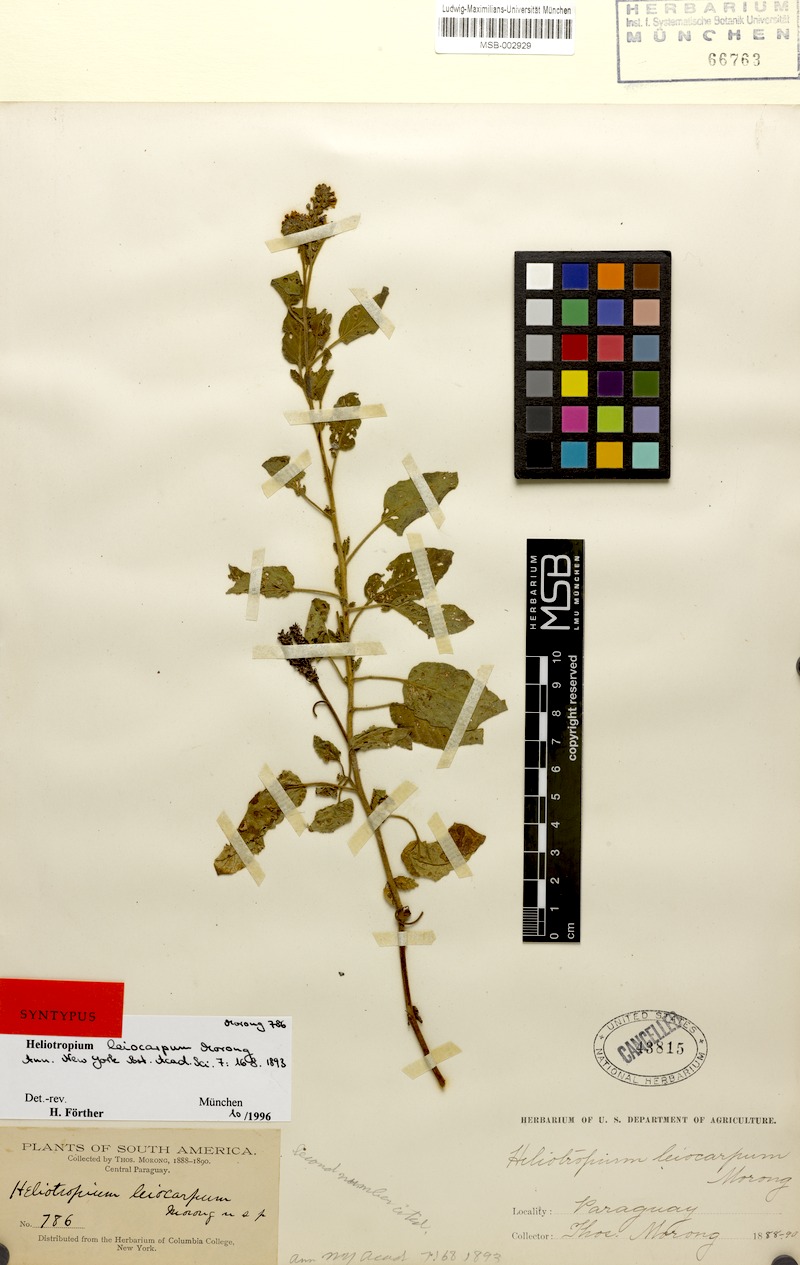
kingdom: Plantae
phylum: Tracheophyta
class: Magnoliopsida
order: Boraginales
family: Heliotropiaceae
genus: Heliotropium
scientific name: Heliotropium leiocarpum
